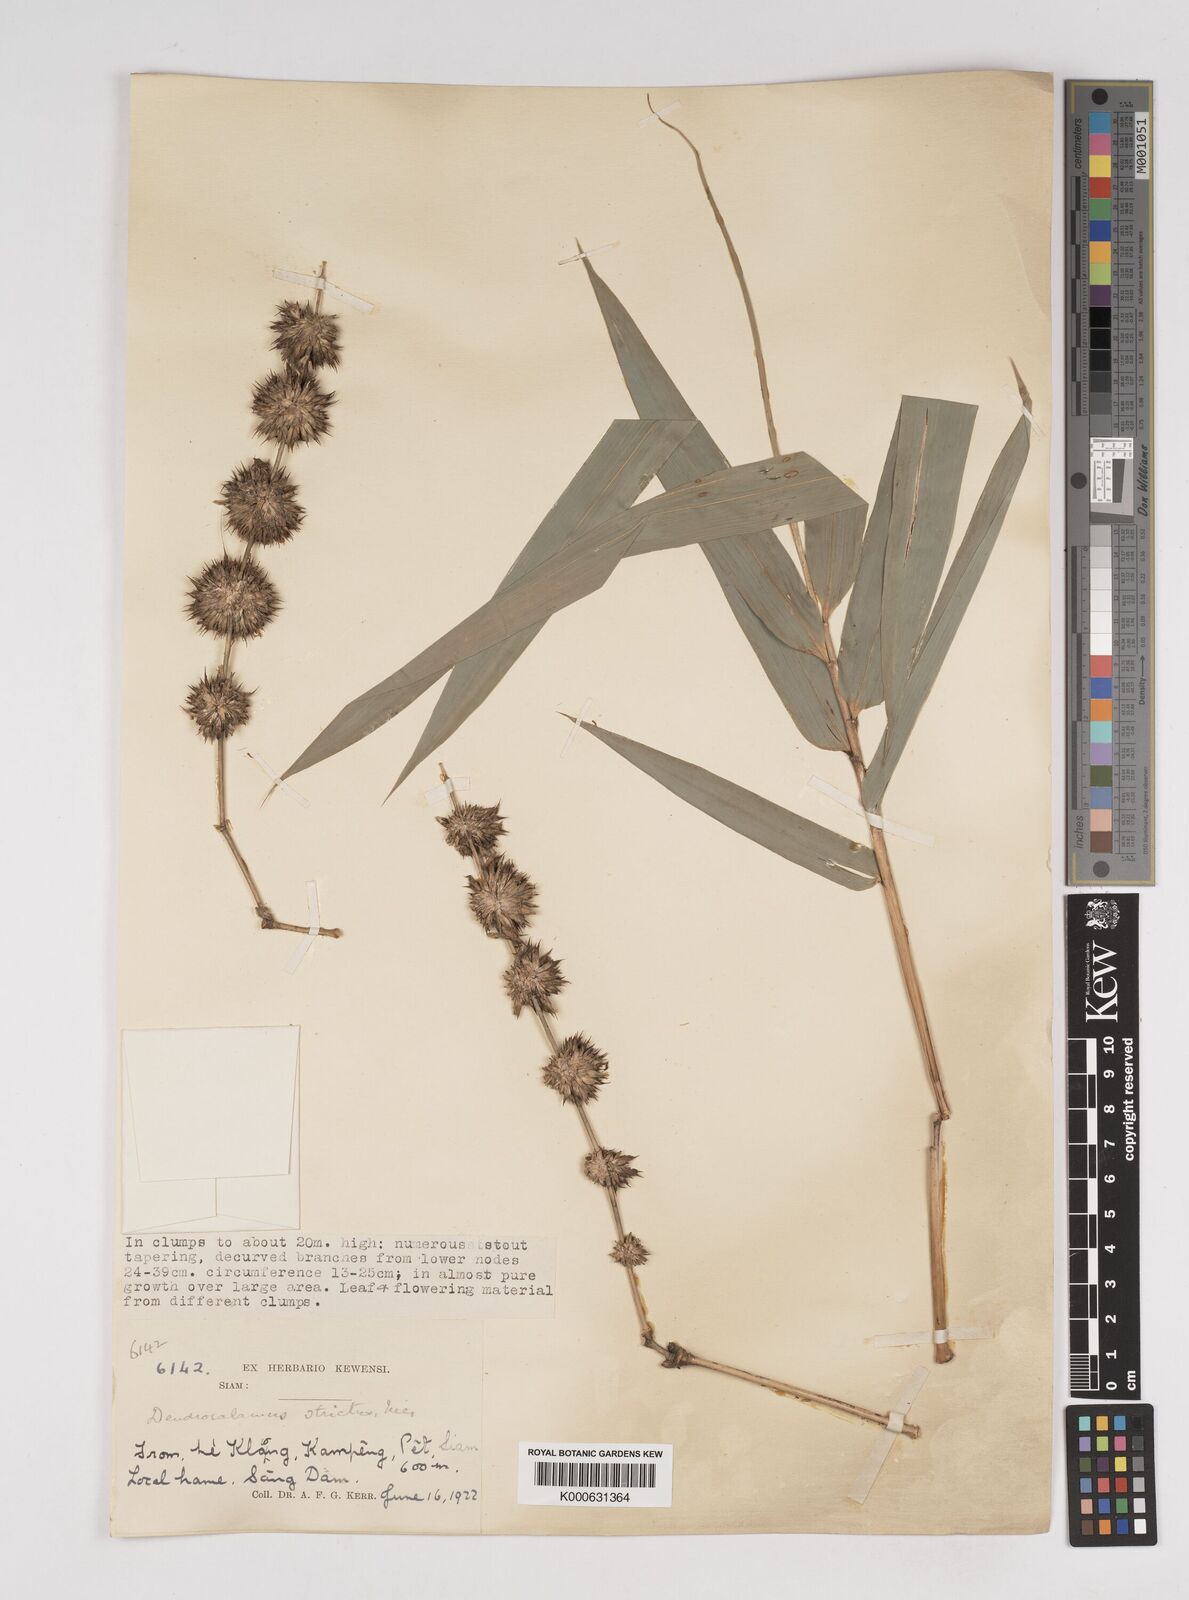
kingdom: Plantae
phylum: Tracheophyta
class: Liliopsida
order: Poales
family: Poaceae
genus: Dendrocalamus
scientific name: Dendrocalamus strictus
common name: Male bamboo
